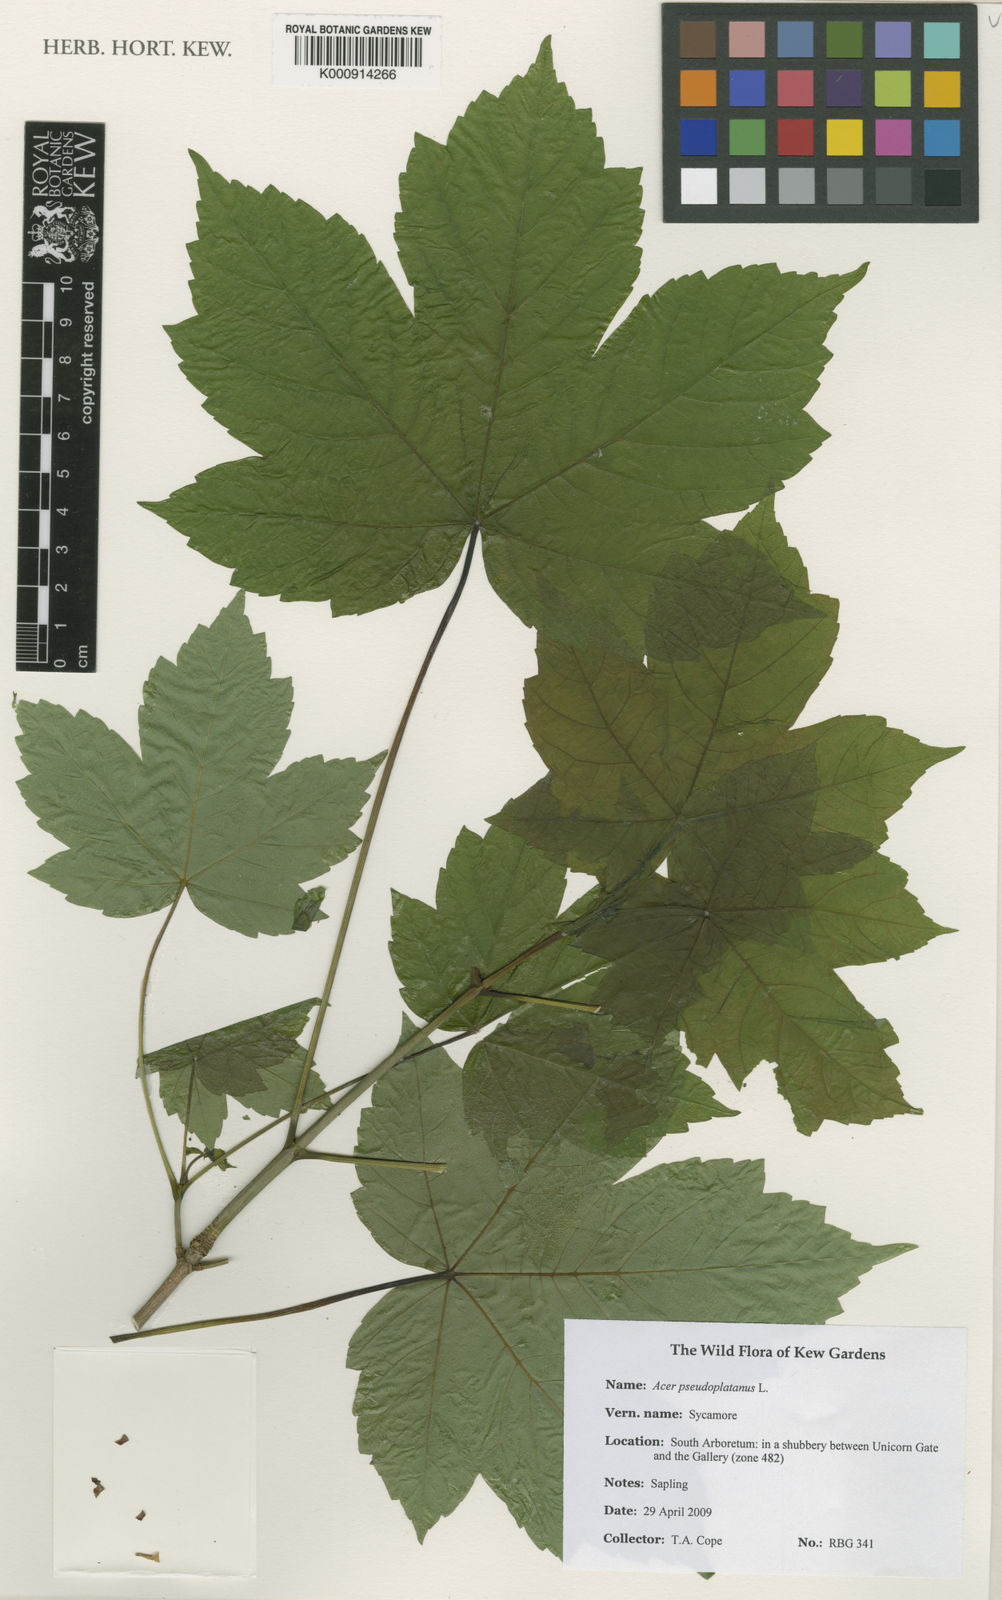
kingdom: Plantae
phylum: Tracheophyta
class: Magnoliopsida
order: Sapindales
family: Sapindaceae
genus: Acer
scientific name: Acer pseudoplatanus
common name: Sycamore
